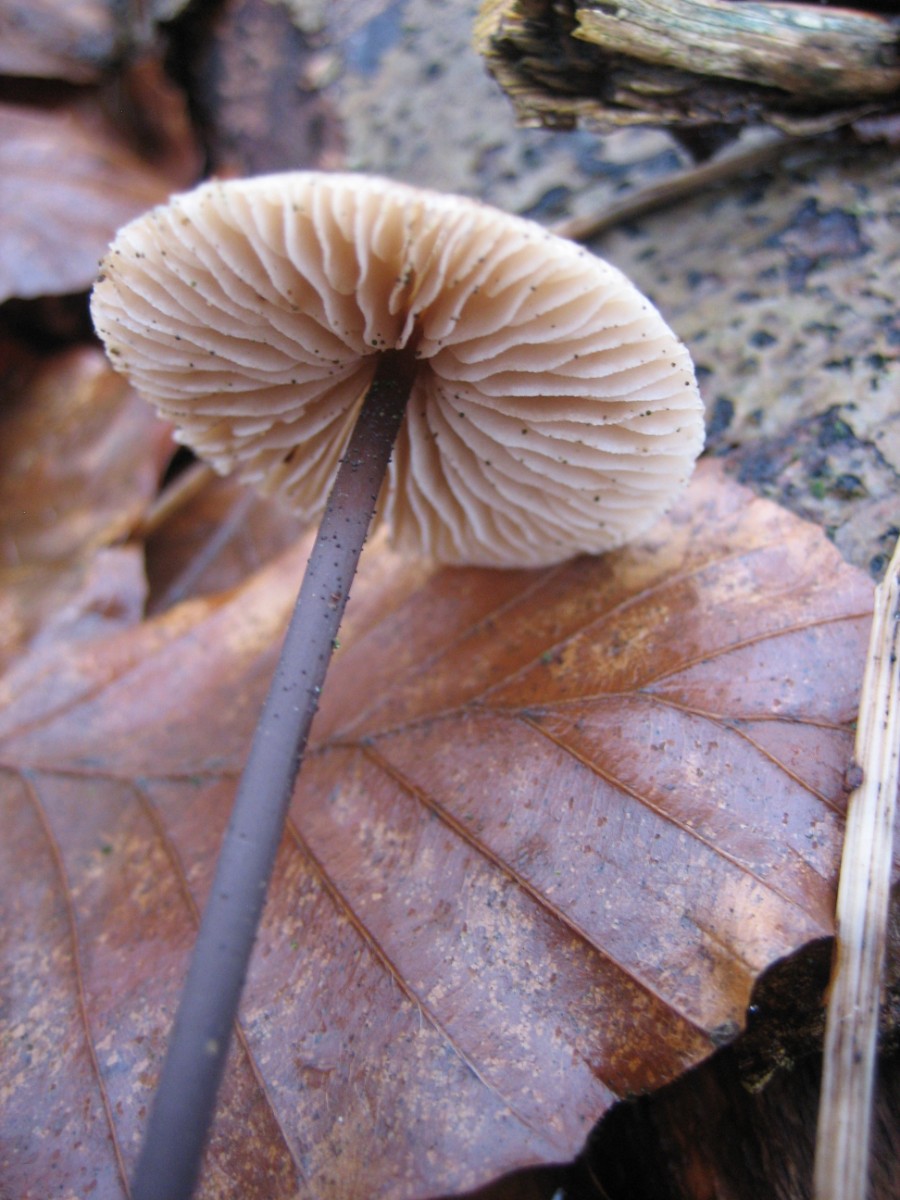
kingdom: Fungi
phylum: Basidiomycota
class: Agaricomycetes
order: Agaricales
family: Omphalotaceae
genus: Mycetinis
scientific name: Mycetinis alliaceus
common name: stor løghat
